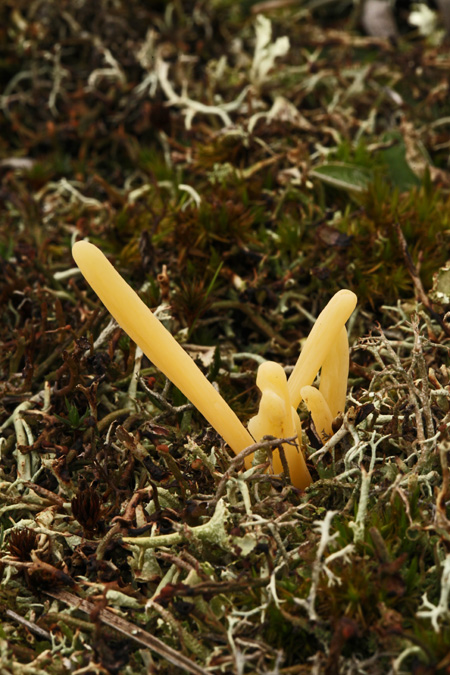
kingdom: Fungi
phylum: Basidiomycota
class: Agaricomycetes
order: Agaricales
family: Clavariaceae
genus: Clavaria
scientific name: Clavaria argillacea
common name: lerfarvet køllesvamp
